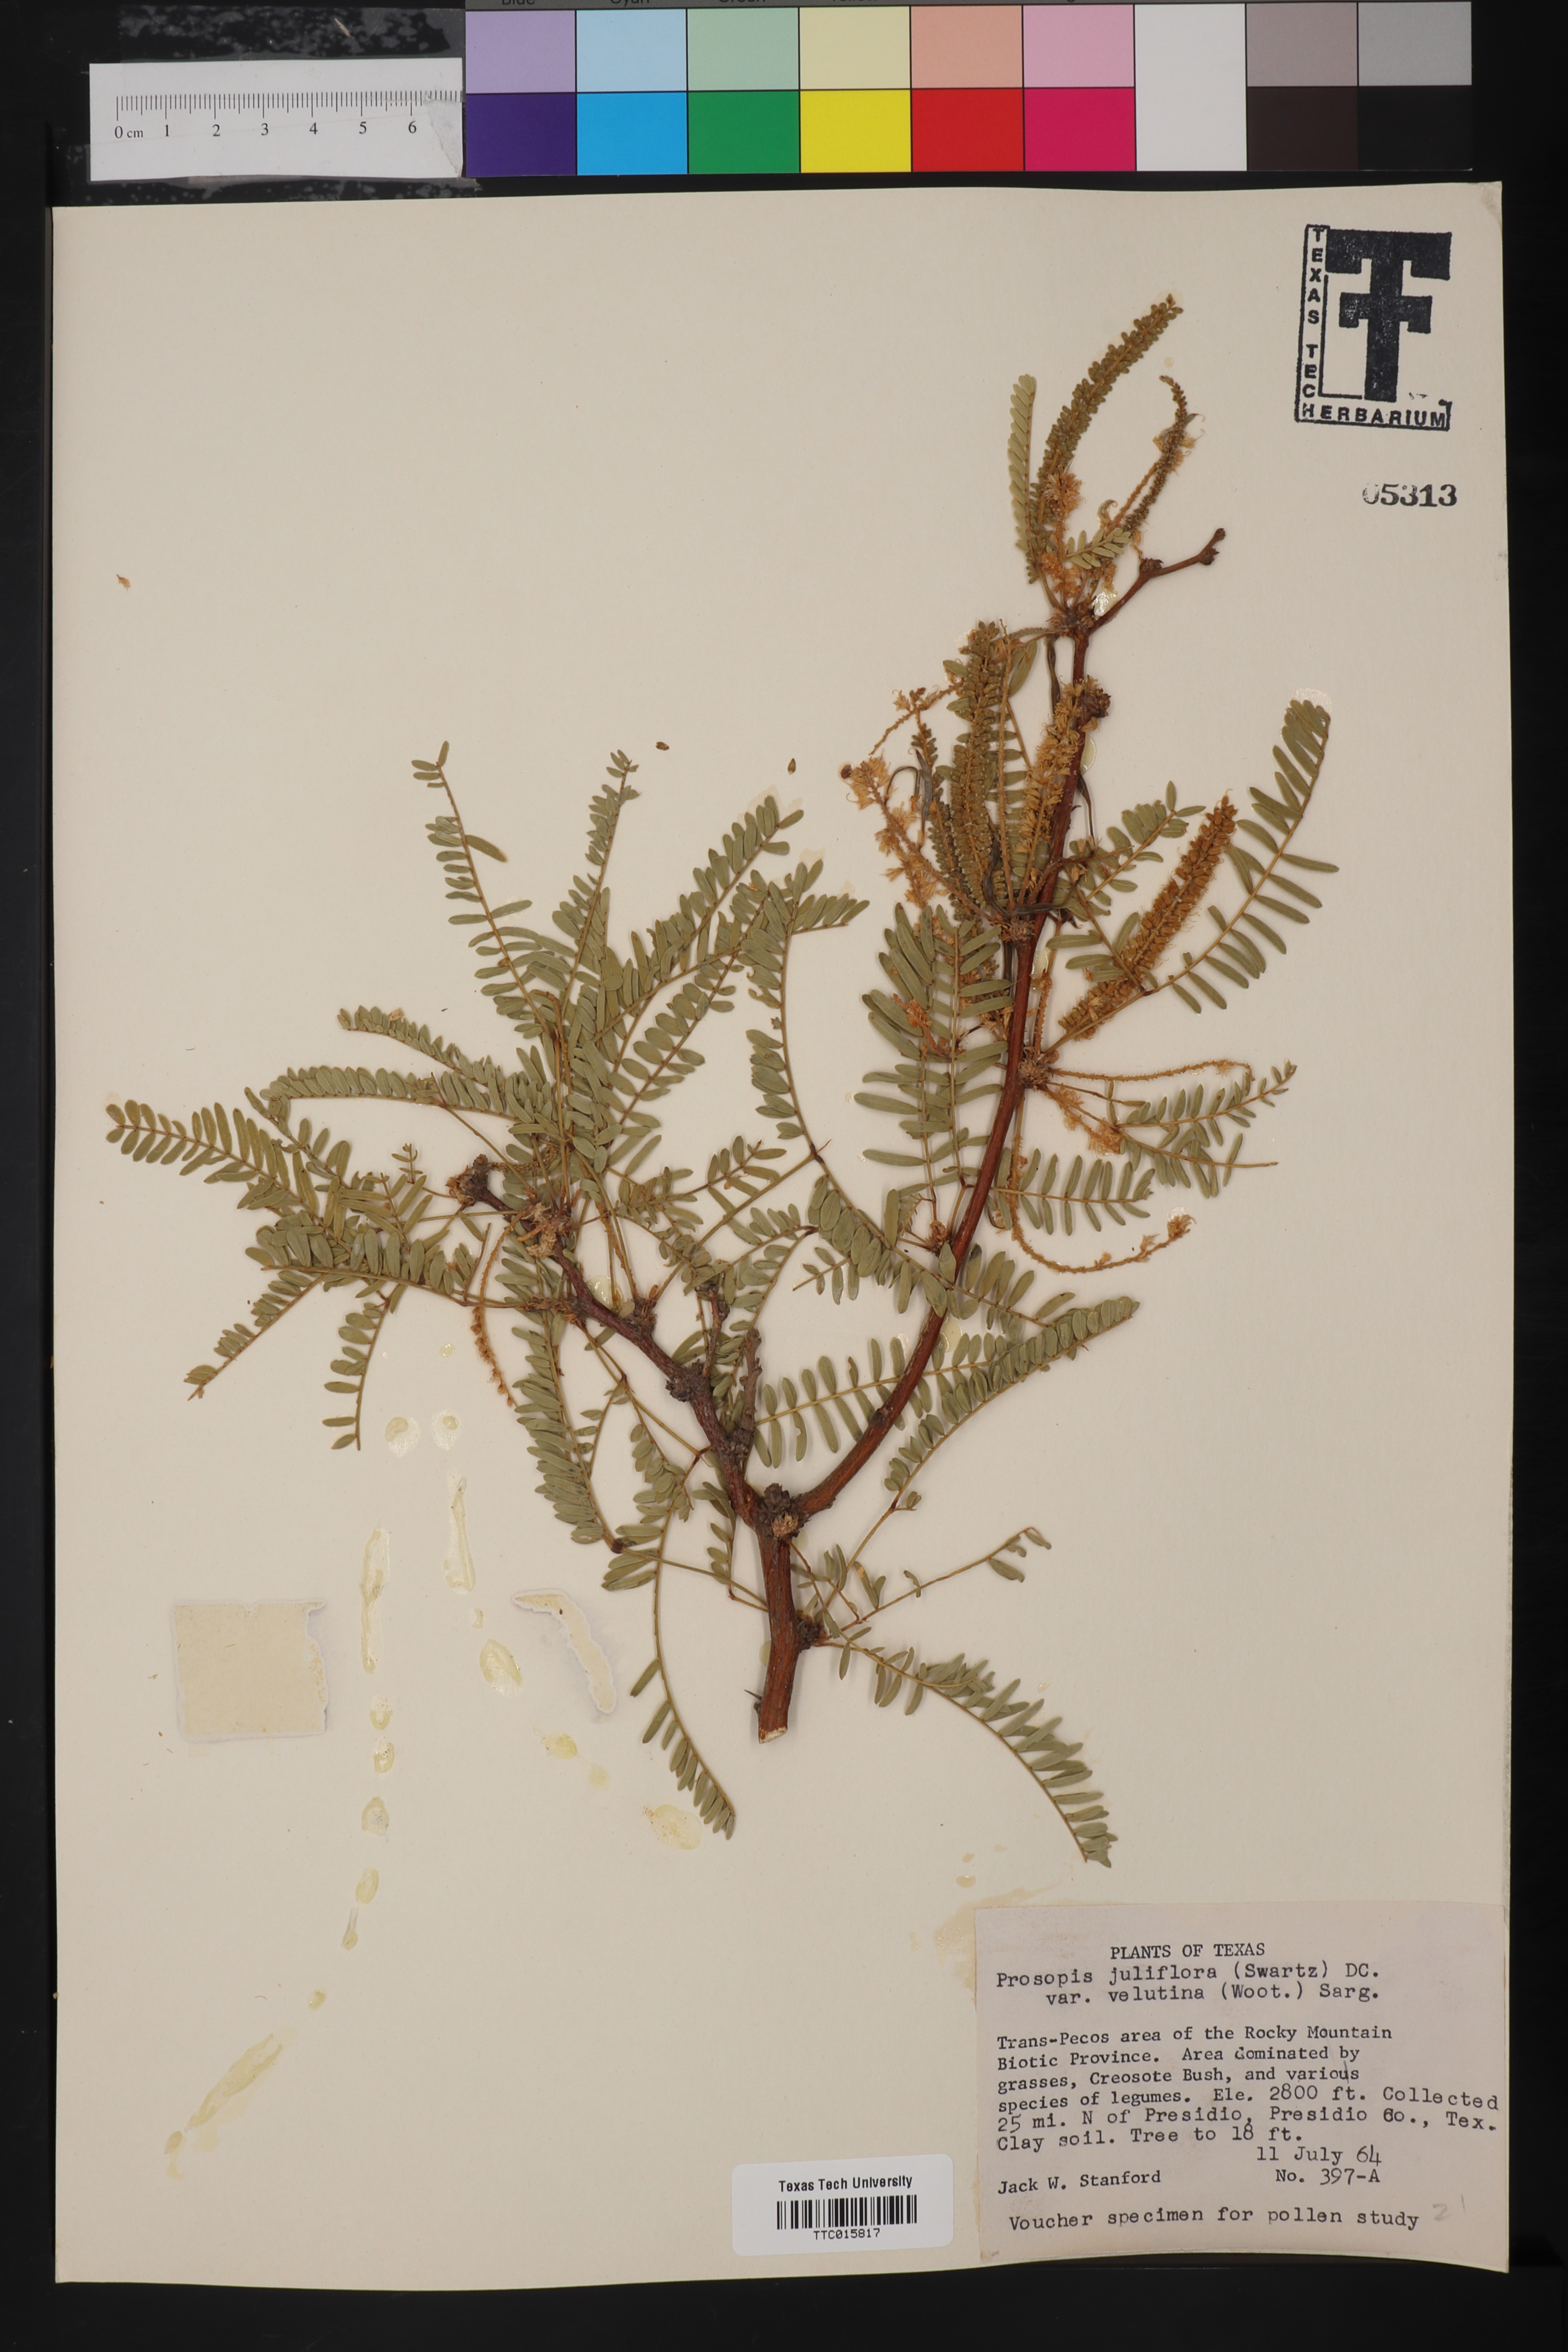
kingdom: Plantae
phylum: Tracheophyta
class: Magnoliopsida
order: Fabales
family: Fabaceae
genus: Prosopis
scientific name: Prosopis velutina
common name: Velvet mesquite
